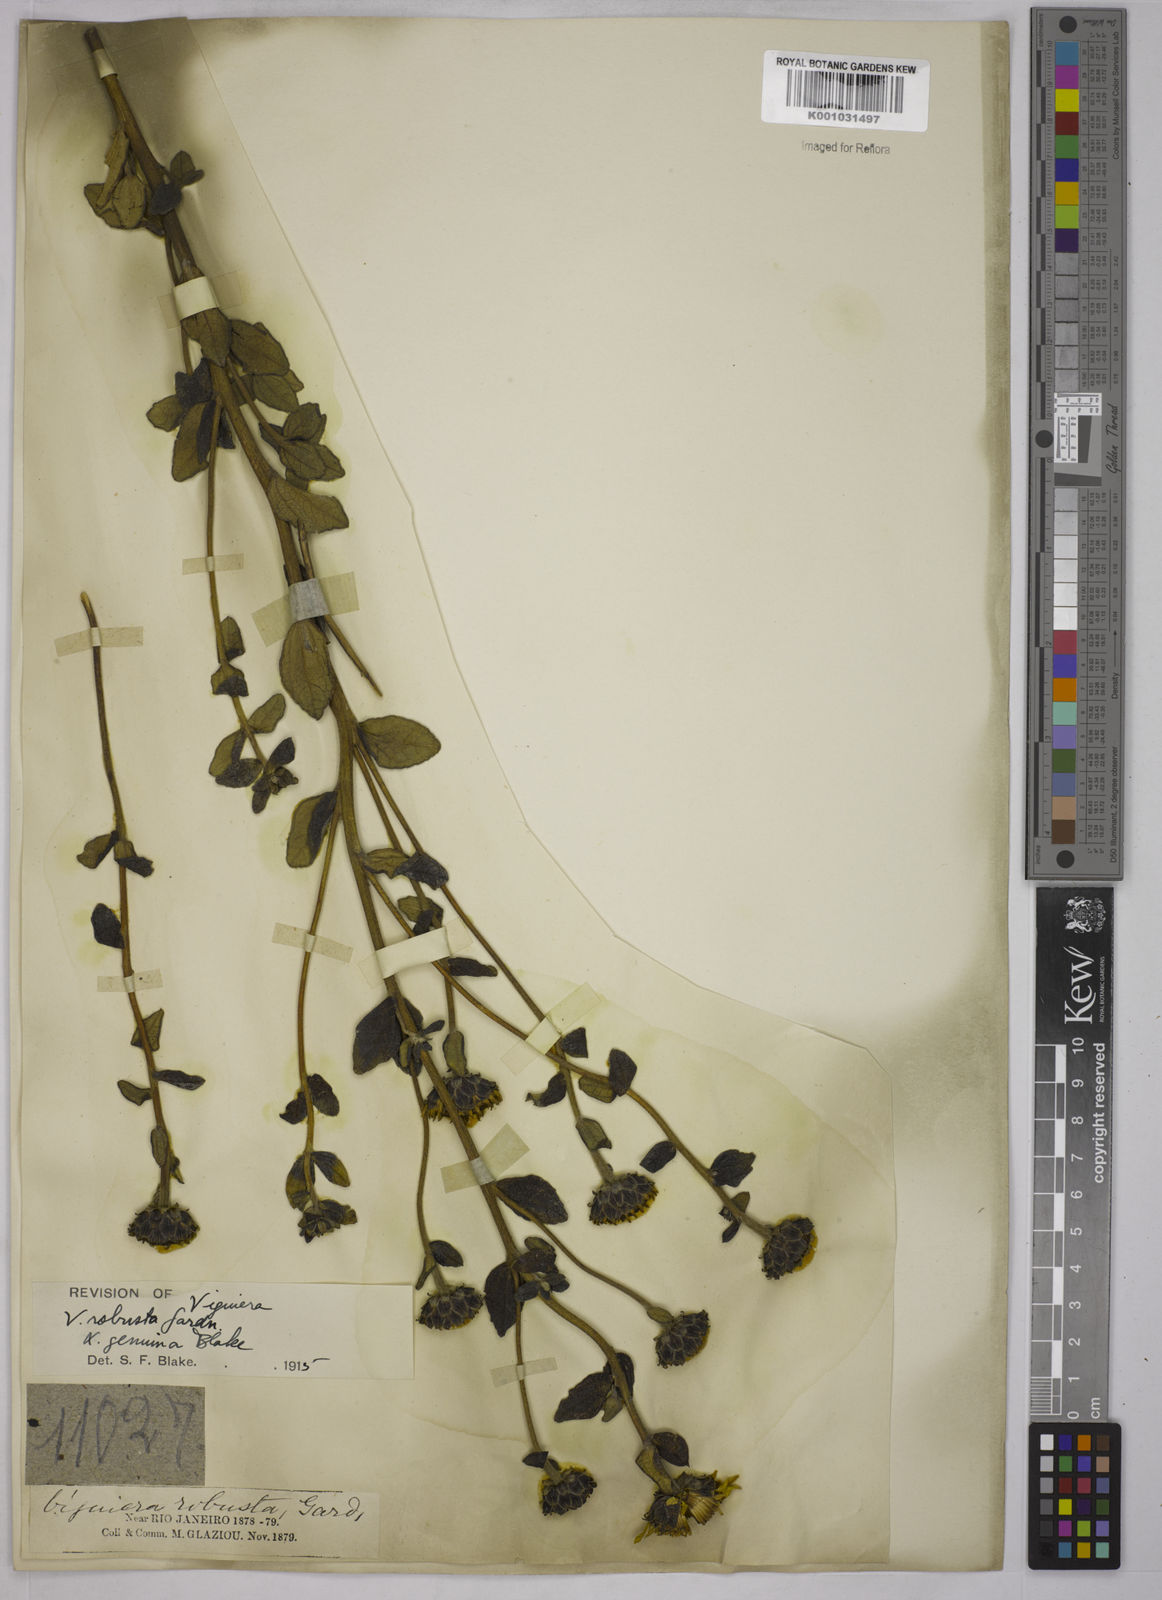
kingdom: Plantae
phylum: Tracheophyta
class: Magnoliopsida
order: Asterales
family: Asteraceae
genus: Aldama
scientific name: Aldama robusta
